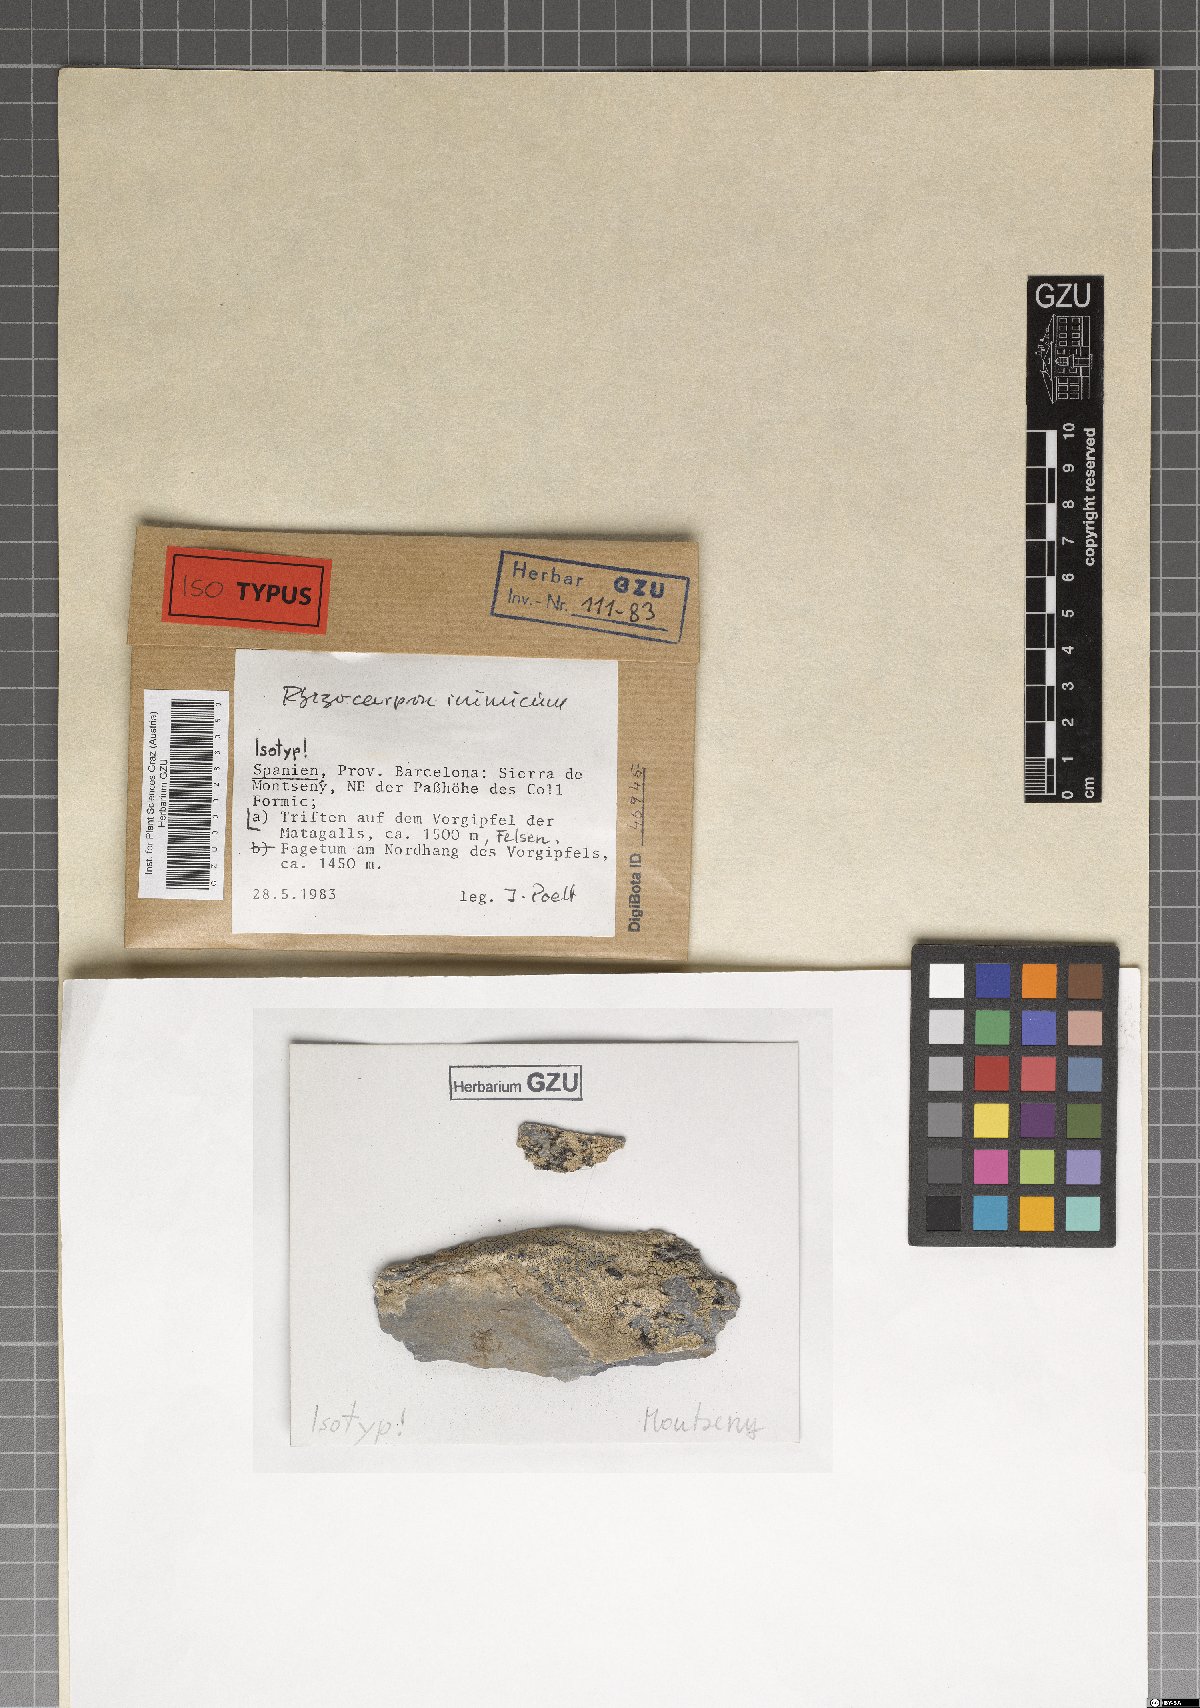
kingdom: Fungi
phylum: Ascomycota
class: Lecanoromycetes
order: Rhizocarpales
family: Rhizocarpaceae
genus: Rhizocarpon
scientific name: Rhizocarpon inimicum
